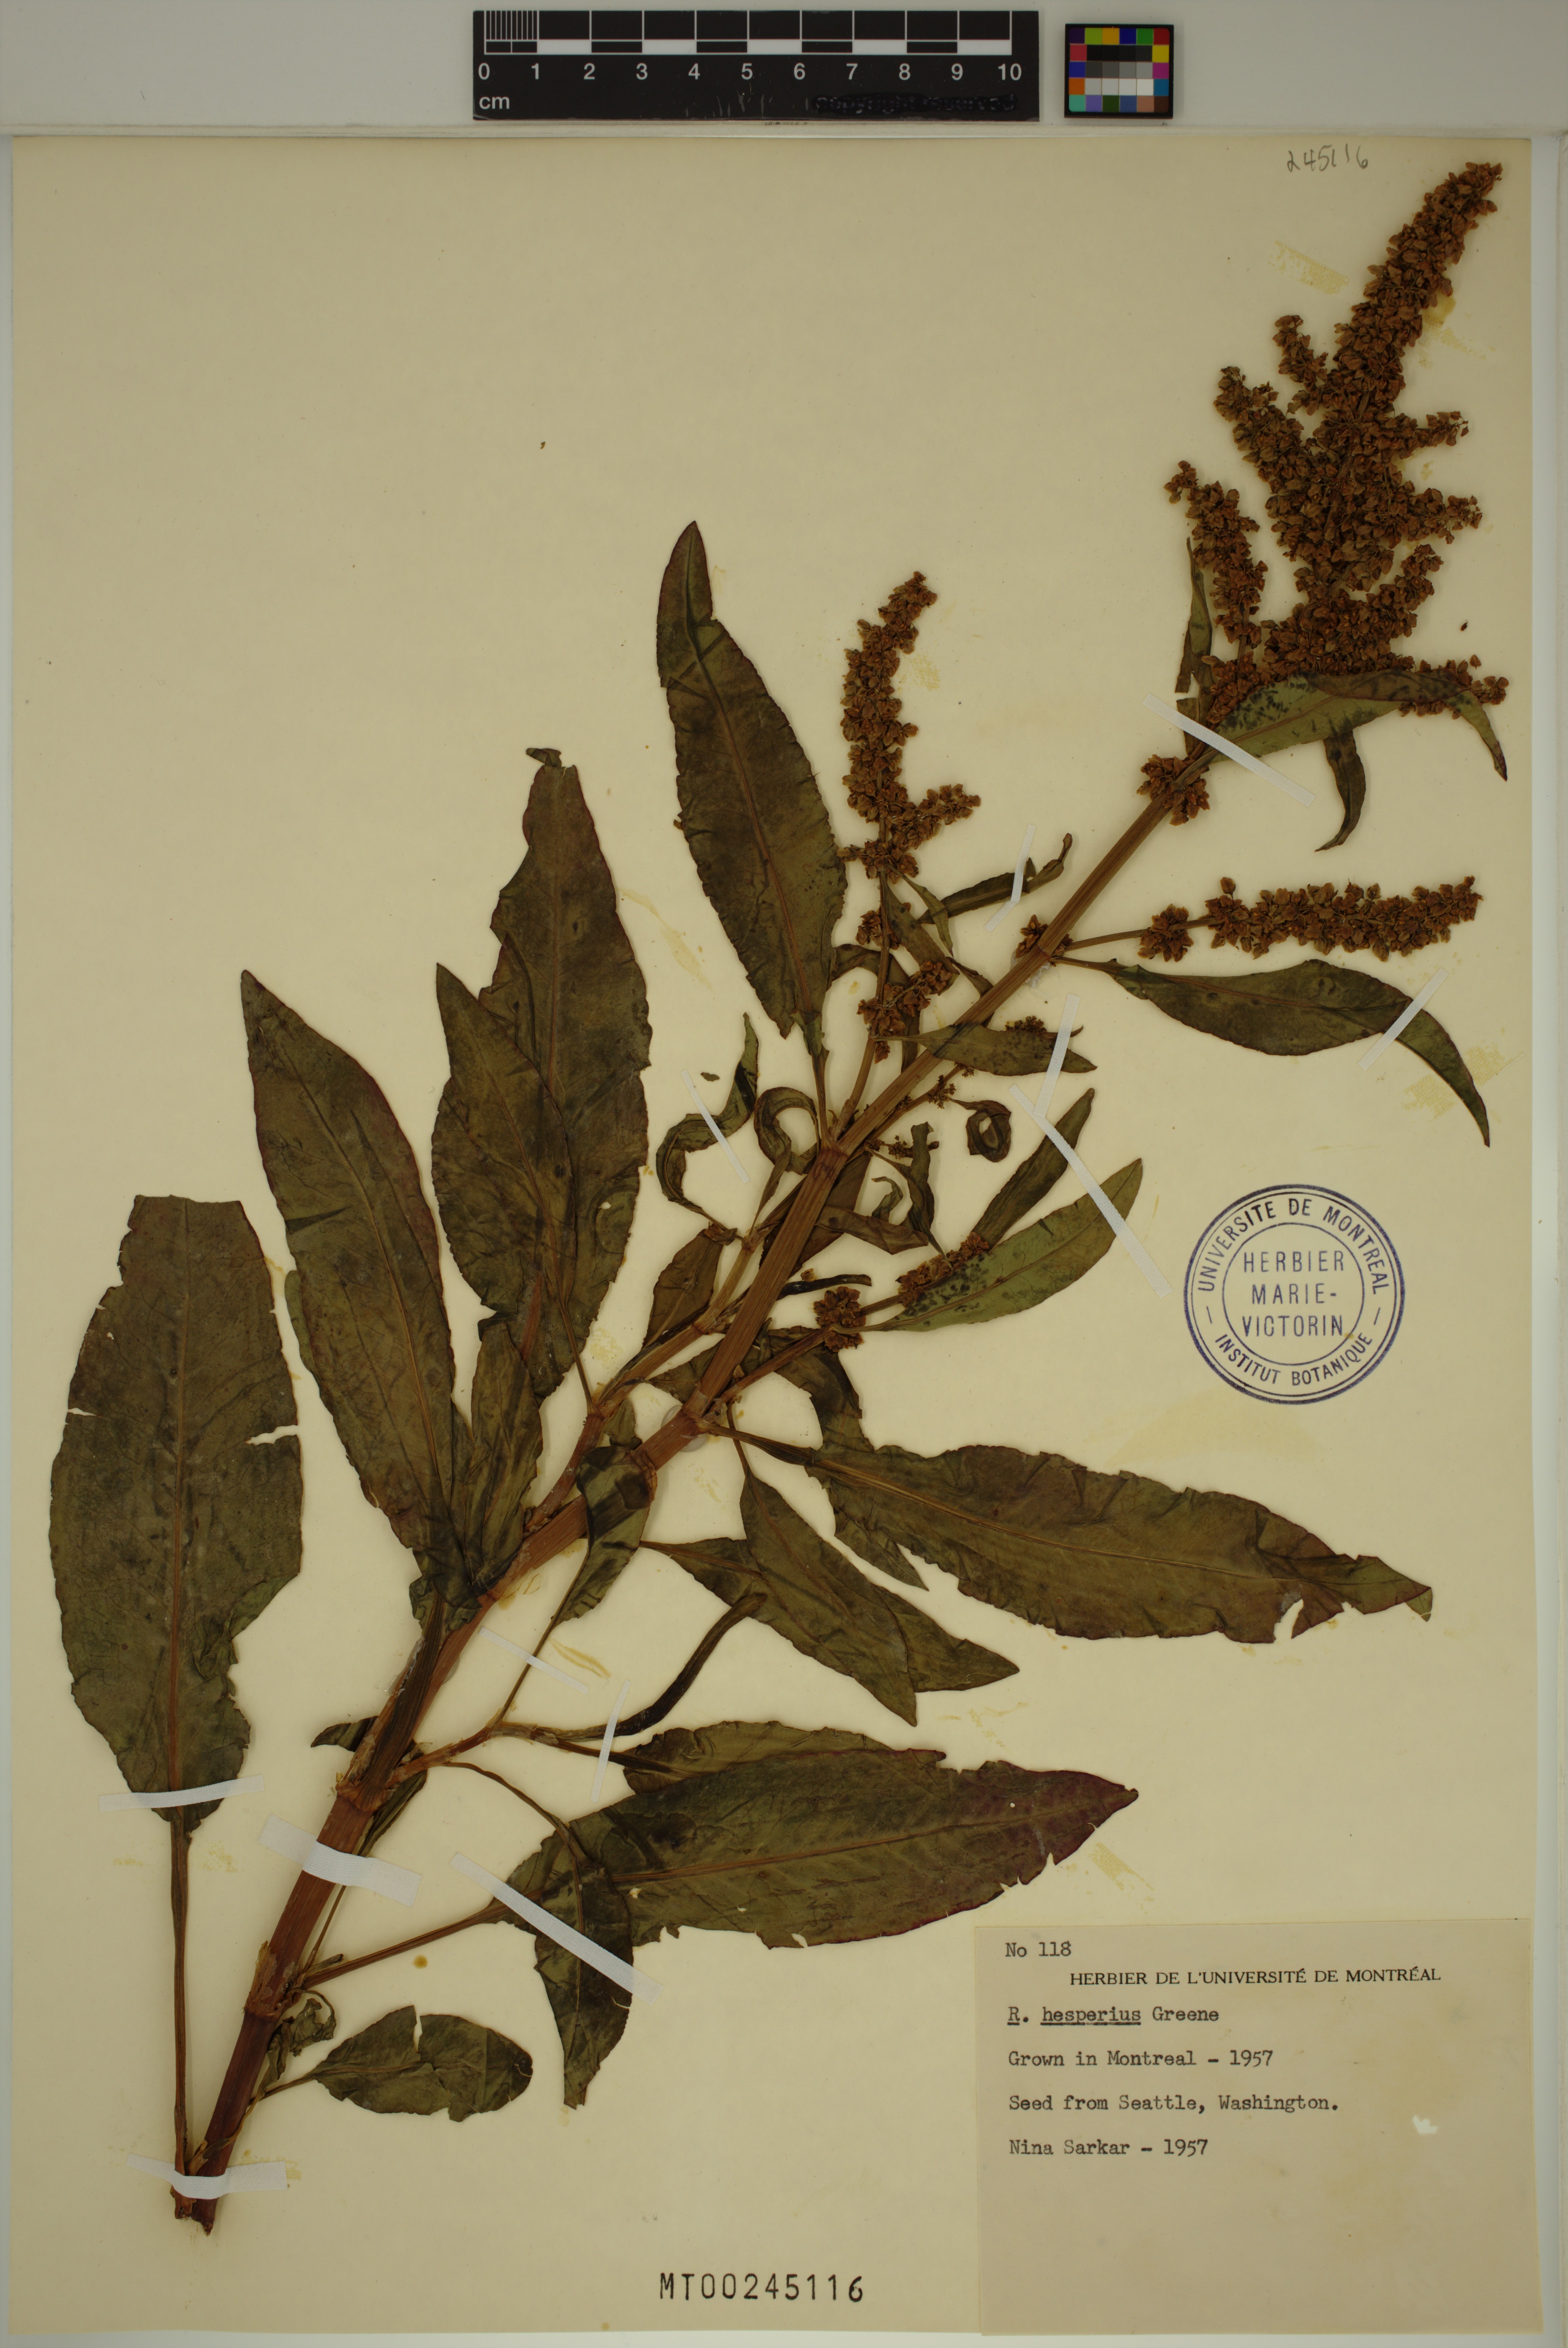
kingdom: Plantae
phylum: Tracheophyta
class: Magnoliopsida
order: Caryophyllales
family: Polygonaceae
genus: Rumex
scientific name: Rumex salicifolius
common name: Willow-leaved dock
